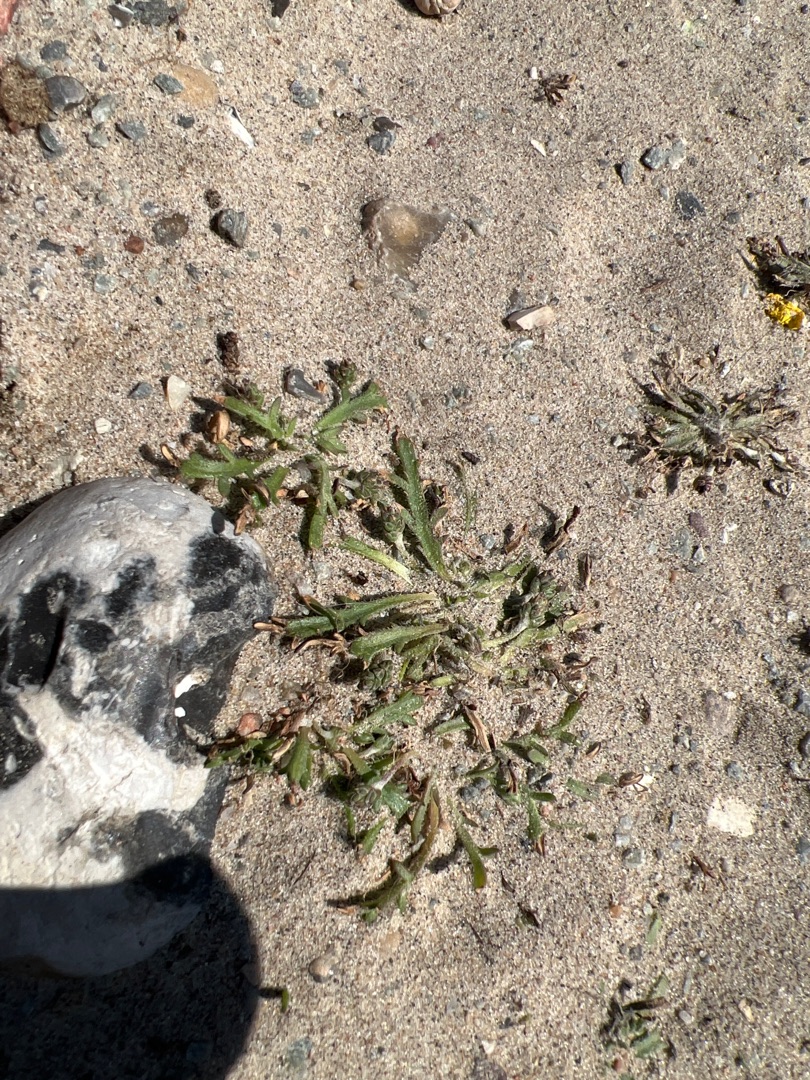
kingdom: Plantae
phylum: Tracheophyta
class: Magnoliopsida
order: Lamiales
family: Plantaginaceae
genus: Plantago
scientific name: Plantago coronopus
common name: Fliget vejbred
